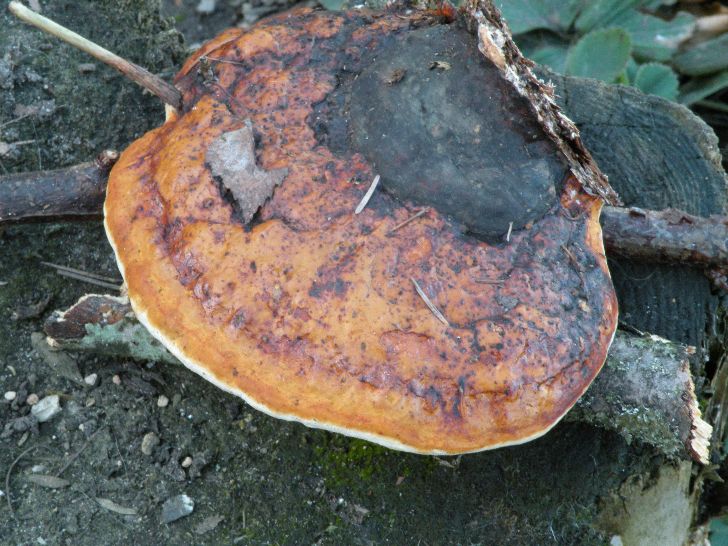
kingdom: Fungi
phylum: Basidiomycota
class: Agaricomycetes
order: Polyporales
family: Fomitopsidaceae
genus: Fomitopsis
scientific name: Fomitopsis pinicola
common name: randbæltet hovporesvamp
